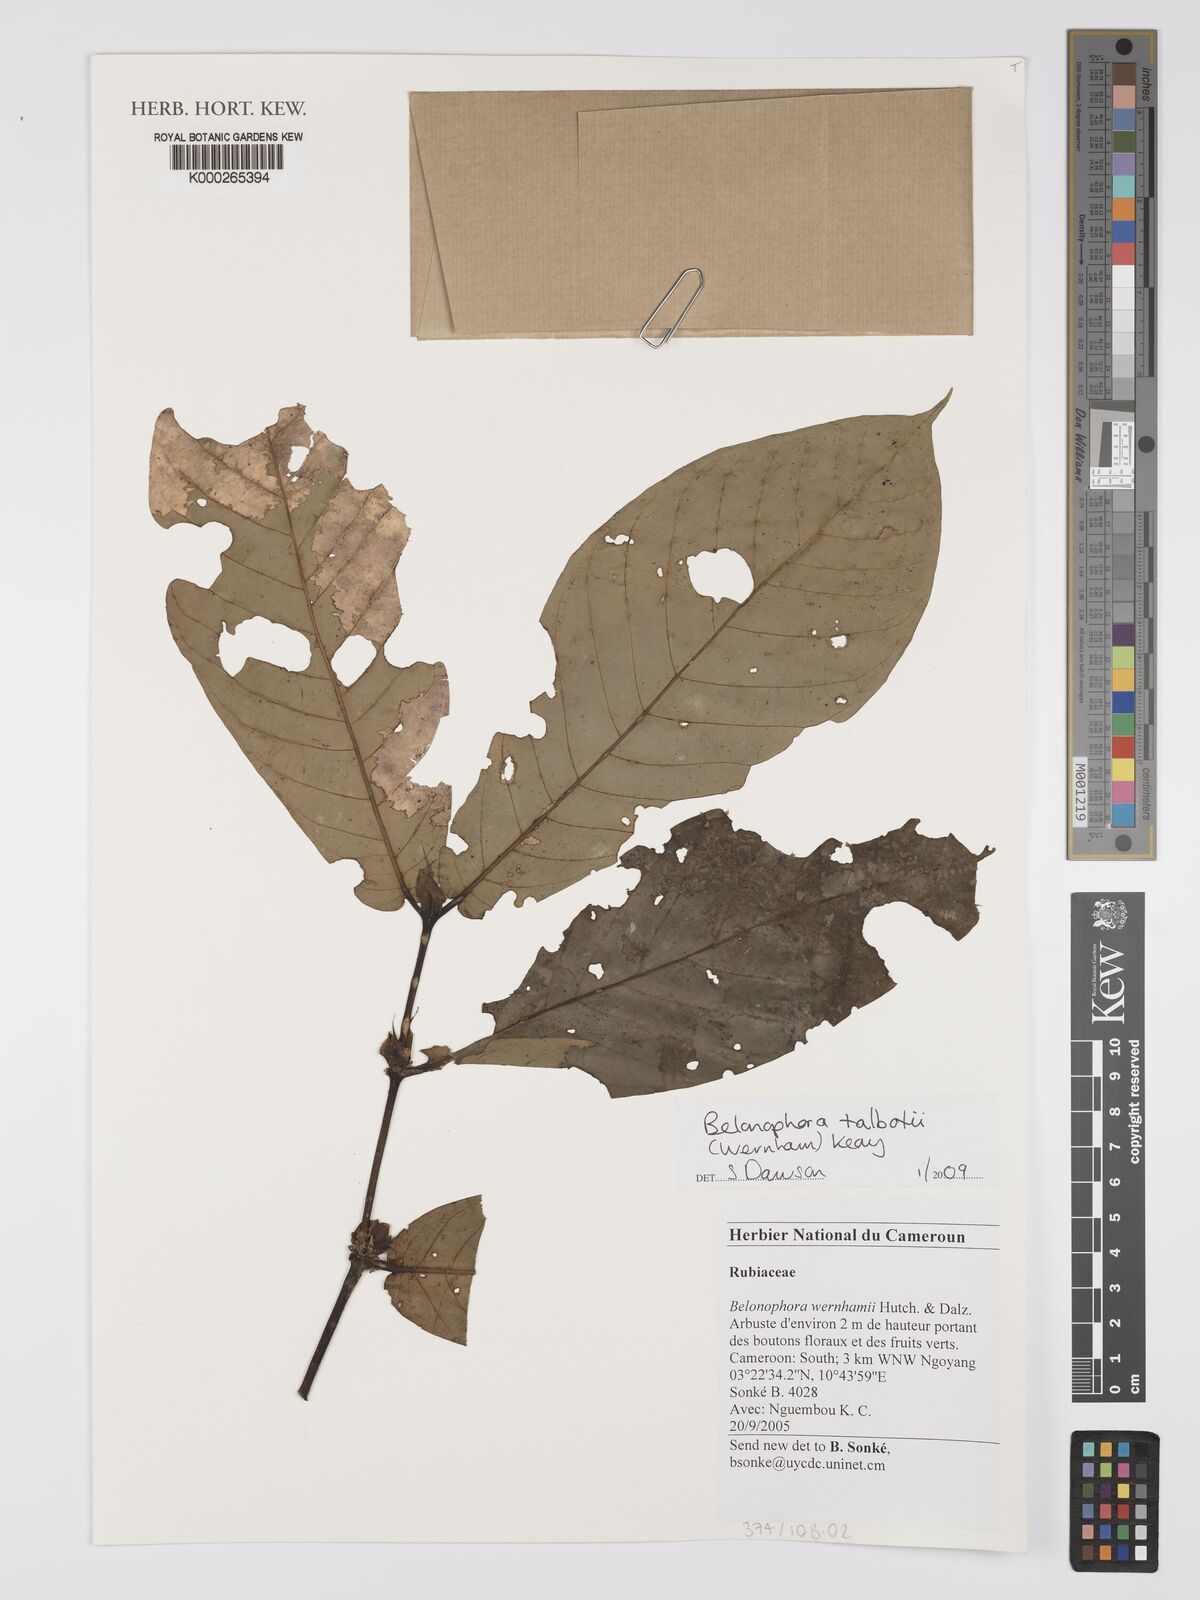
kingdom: Plantae
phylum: Tracheophyta
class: Magnoliopsida
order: Gentianales
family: Rubiaceae
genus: Belonophora
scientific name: Belonophora talbotii
